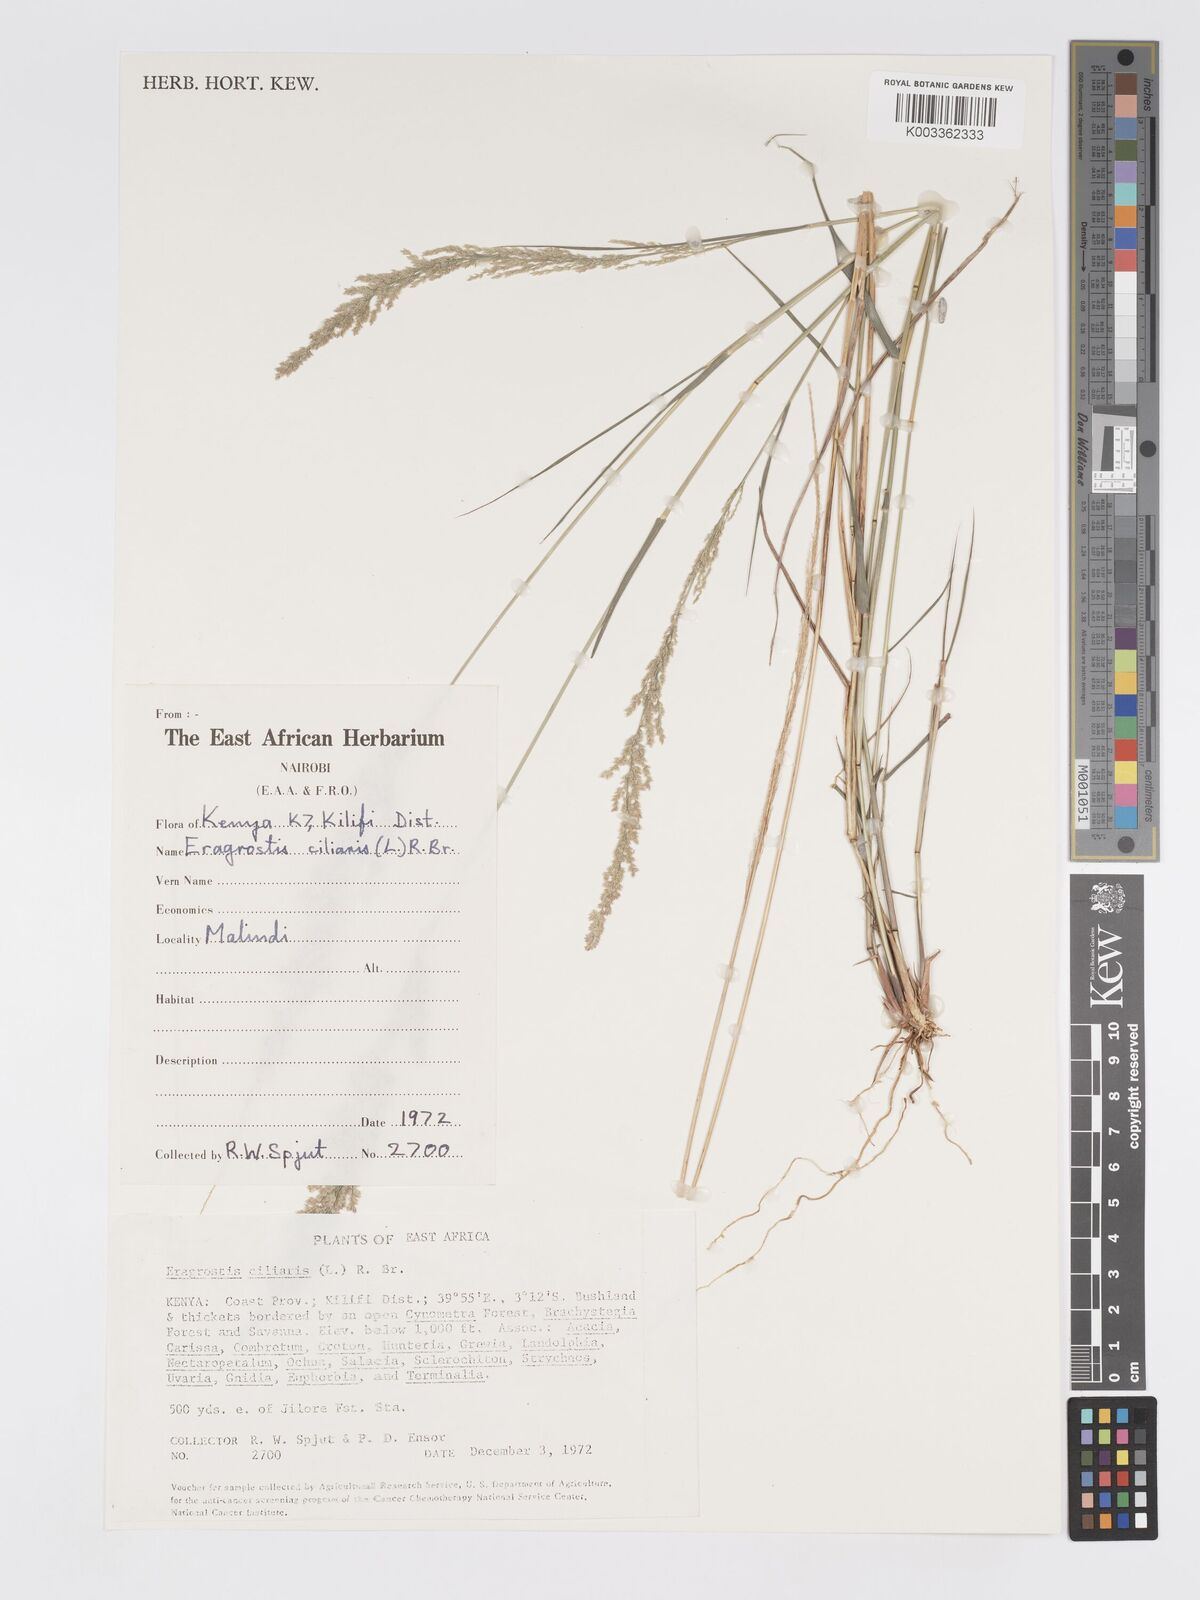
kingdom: Plantae
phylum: Tracheophyta
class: Liliopsida
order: Poales
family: Poaceae
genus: Eragrostis
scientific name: Eragrostis ciliaris
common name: Gophertail lovegrass
